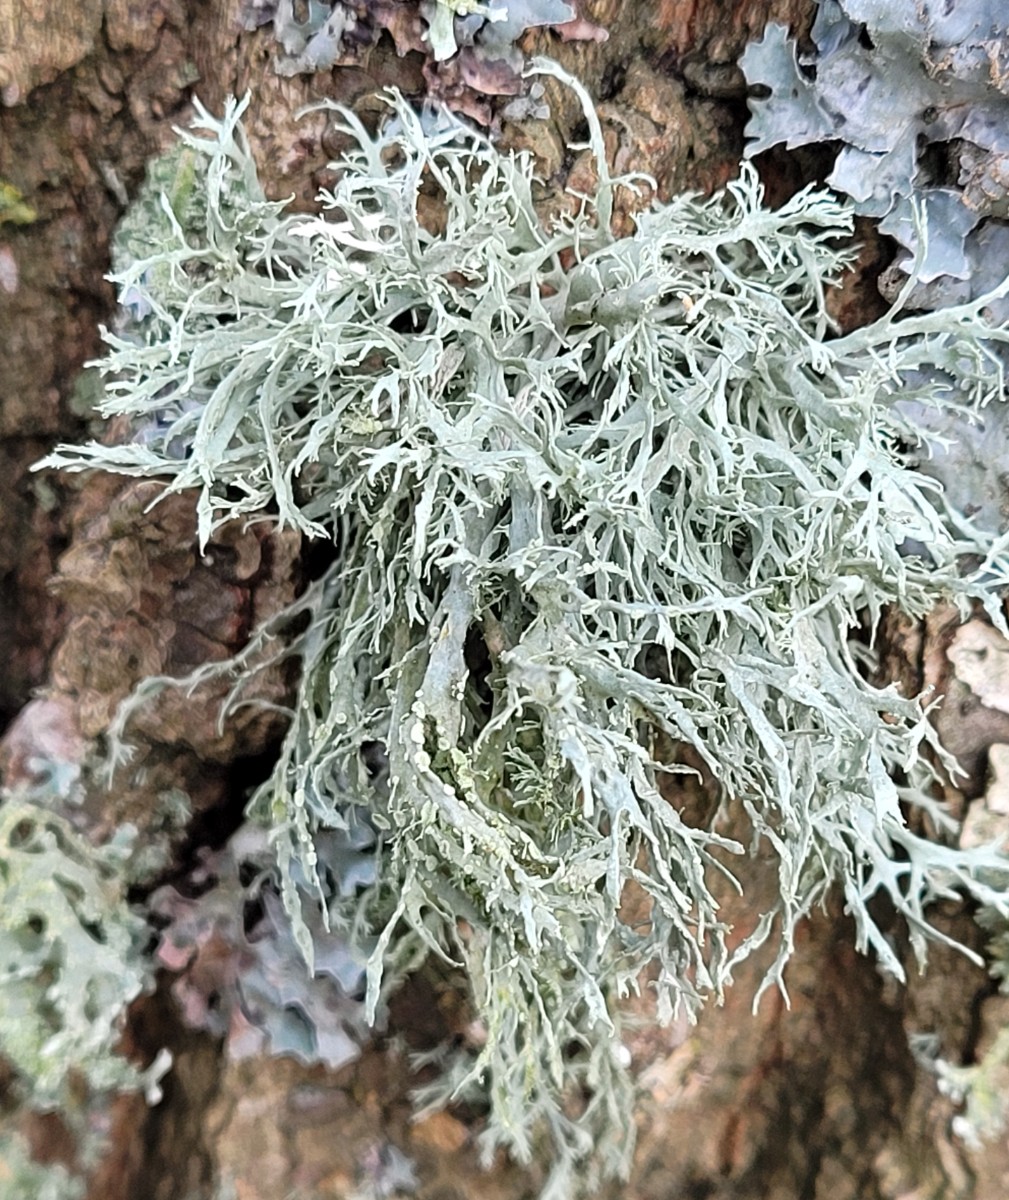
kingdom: Fungi
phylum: Ascomycota
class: Lecanoromycetes
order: Lecanorales
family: Ramalinaceae
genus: Ramalina
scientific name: Ramalina farinacea
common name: melet grenlav
